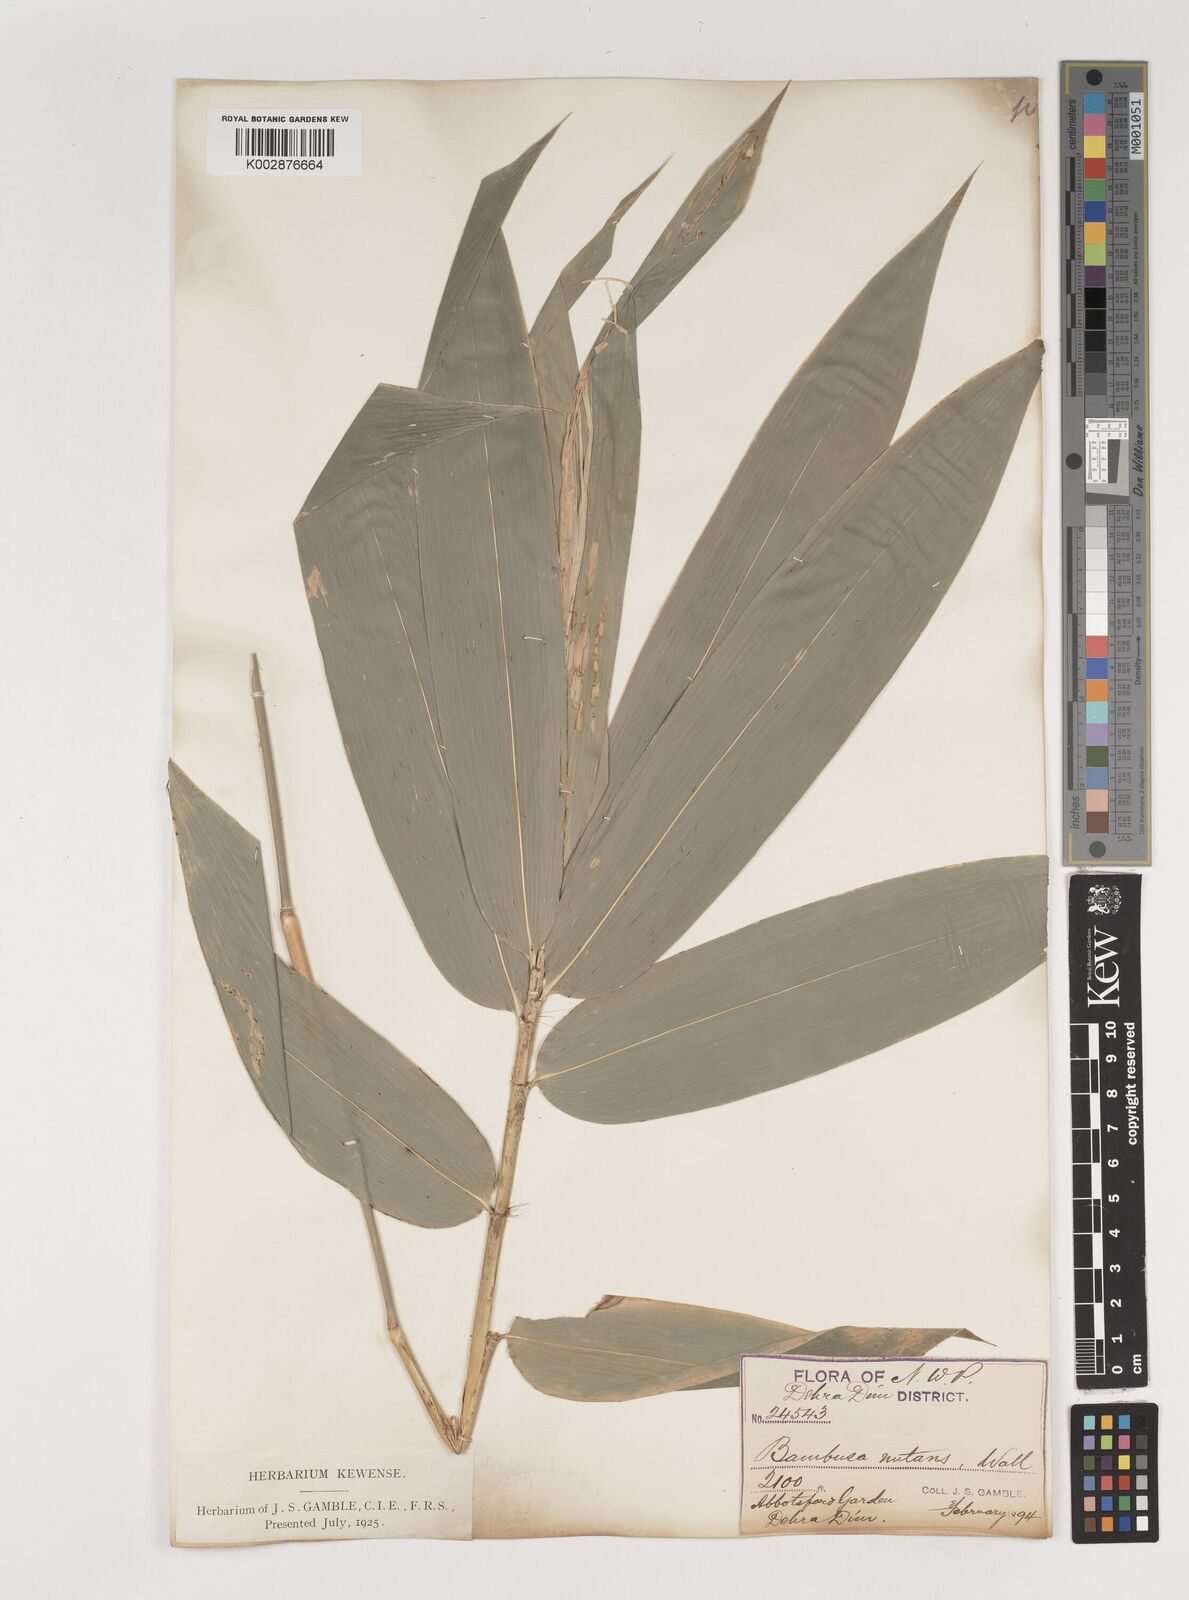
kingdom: Plantae
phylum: Tracheophyta
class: Liliopsida
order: Poales
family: Poaceae
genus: Bambusa
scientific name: Bambusa nutans
